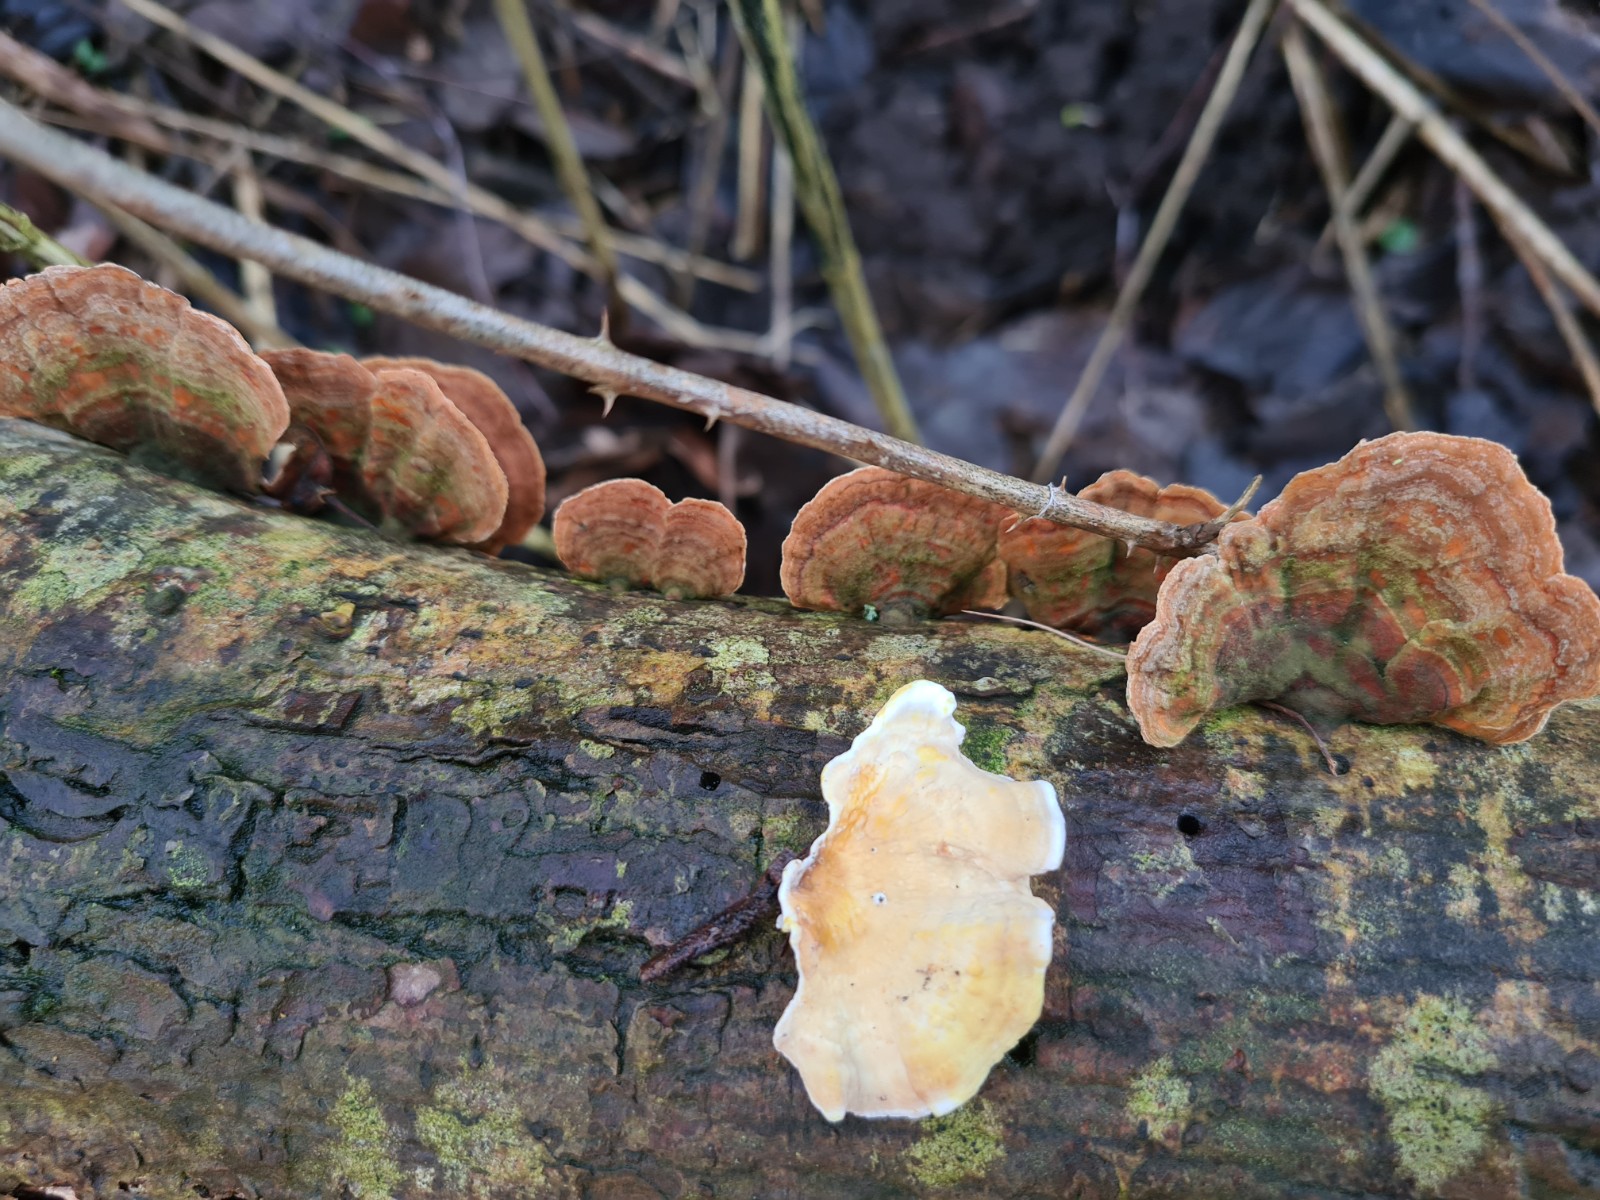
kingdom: Fungi
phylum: Basidiomycota
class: Agaricomycetes
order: Russulales
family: Stereaceae
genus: Stereum
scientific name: Stereum subtomentosum
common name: smuk lædersvamp
